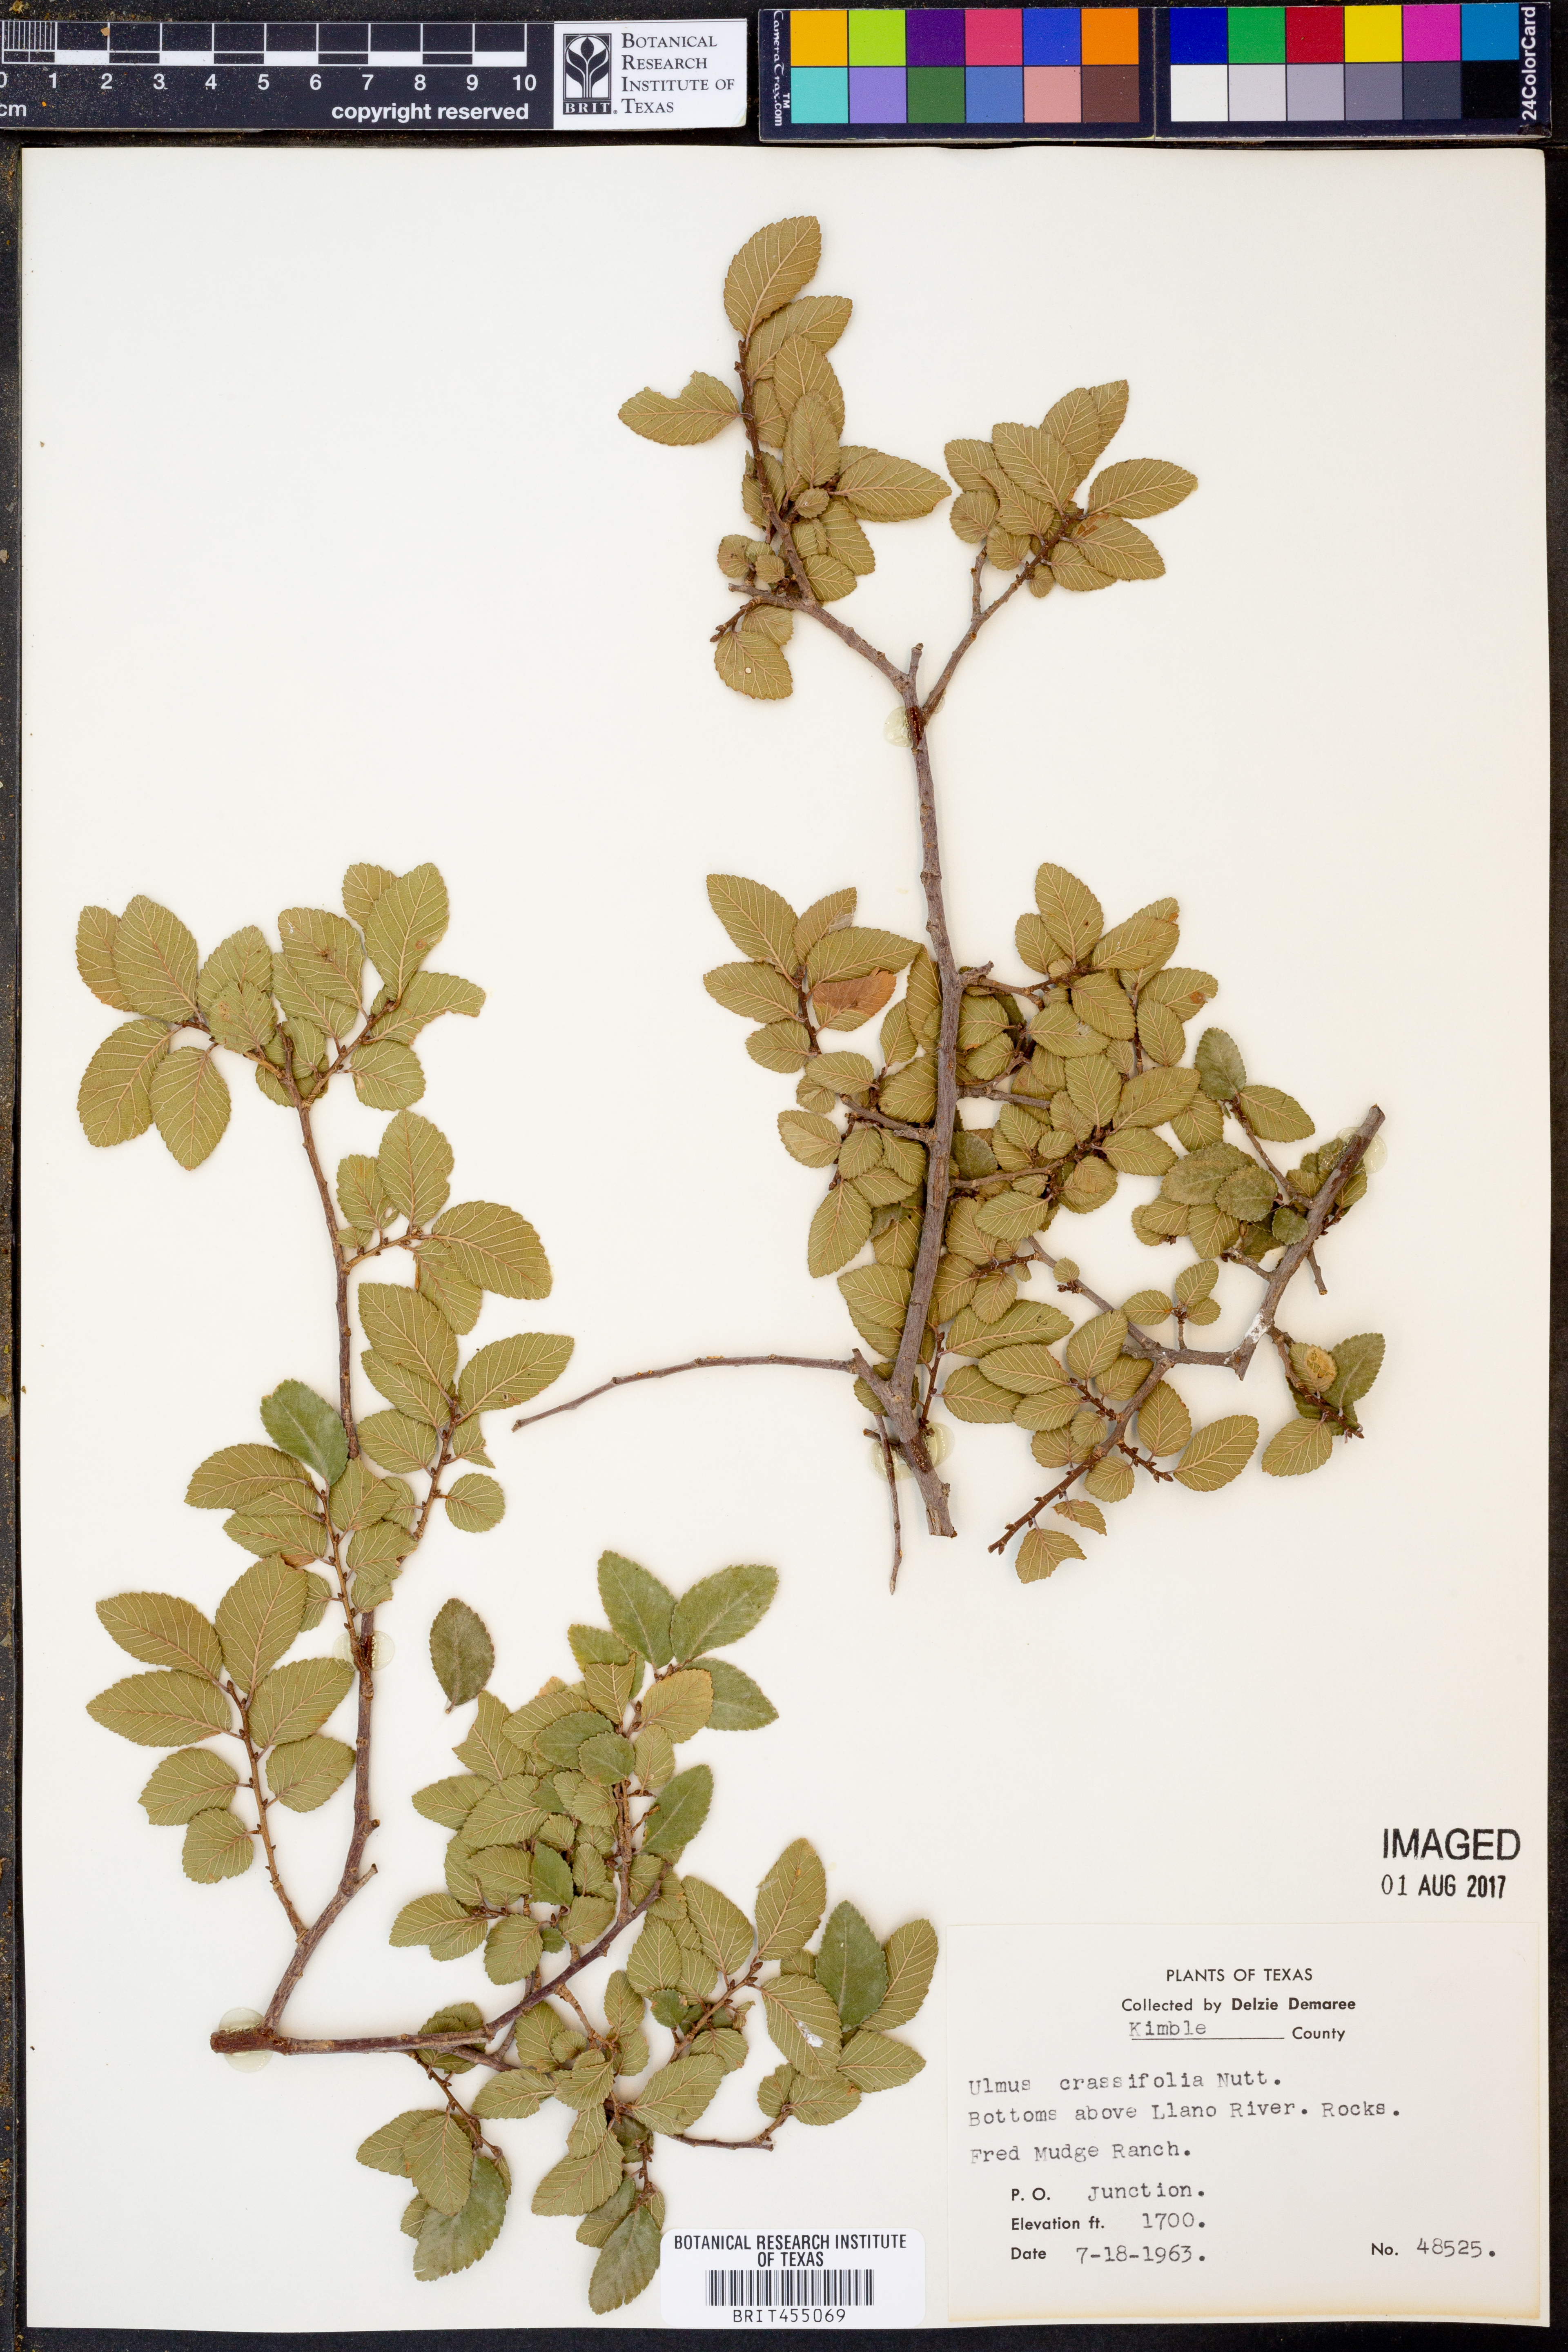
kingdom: Plantae
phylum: Tracheophyta
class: Magnoliopsida
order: Rosales
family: Ulmaceae
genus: Ulmus
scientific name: Ulmus crassifolia
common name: Basket elm
